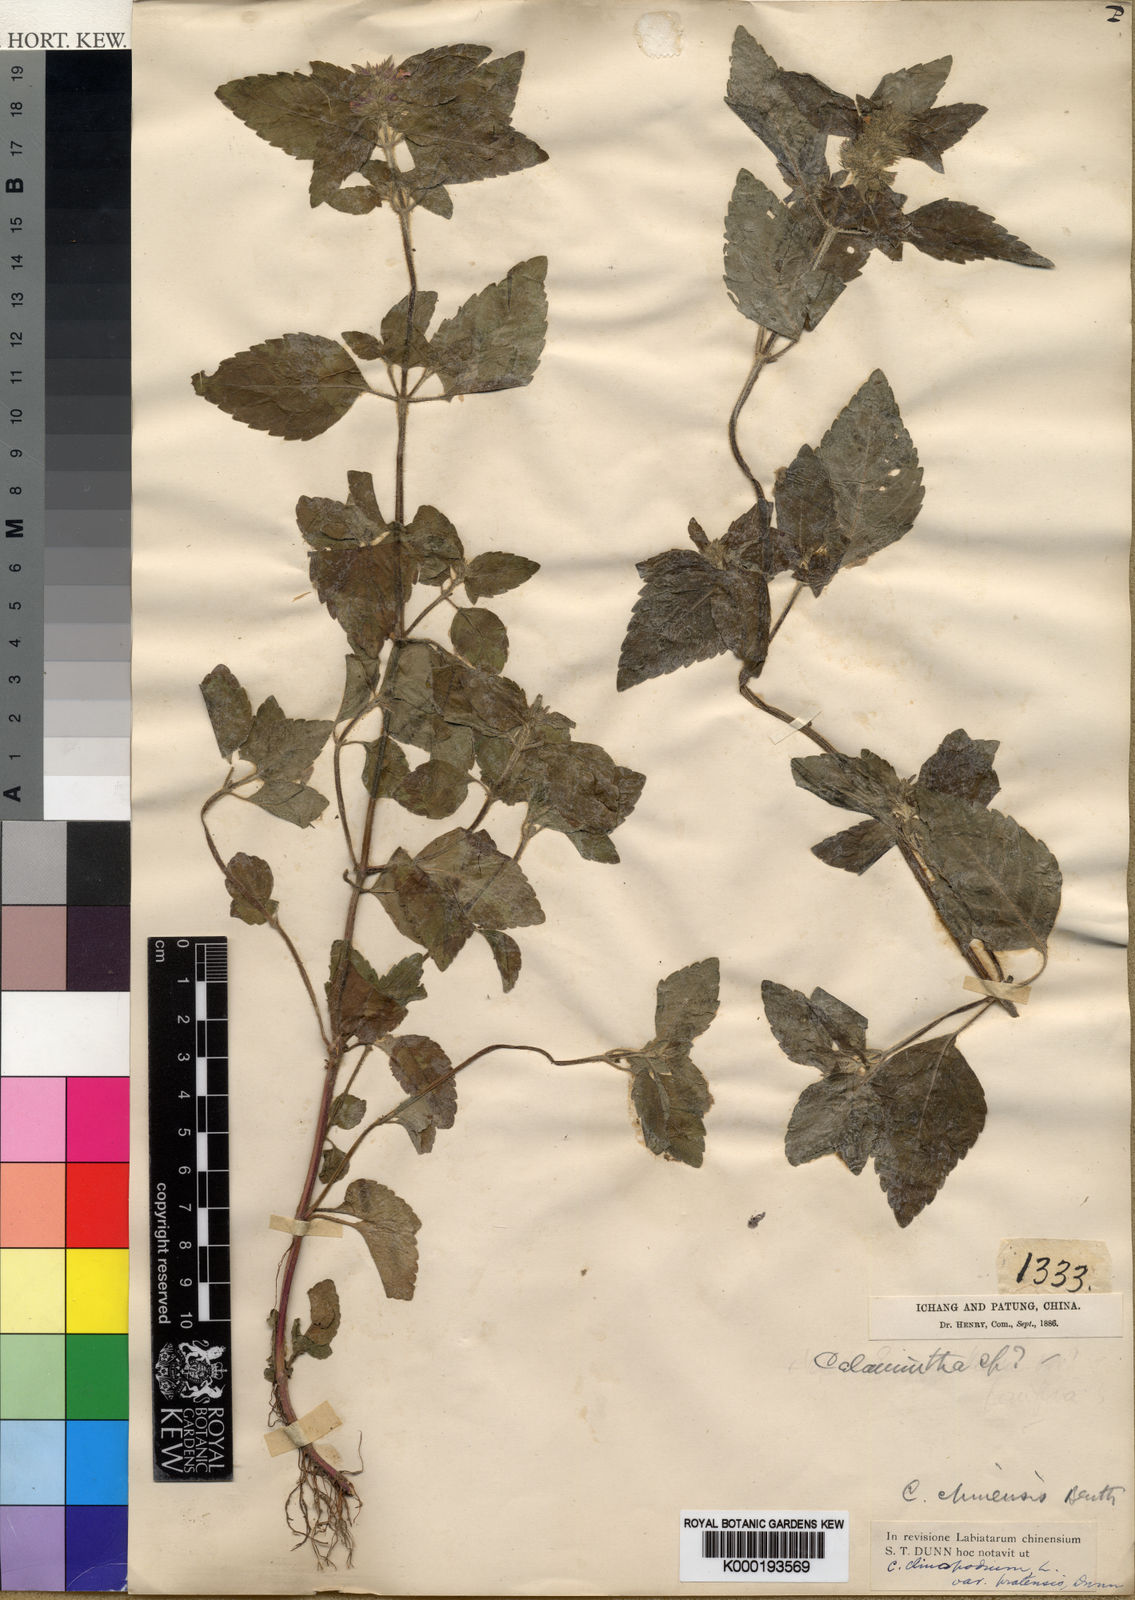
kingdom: Plantae
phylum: Tracheophyta
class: Magnoliopsida
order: Lamiales
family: Lamiaceae
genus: Calamintha
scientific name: Calamintha
